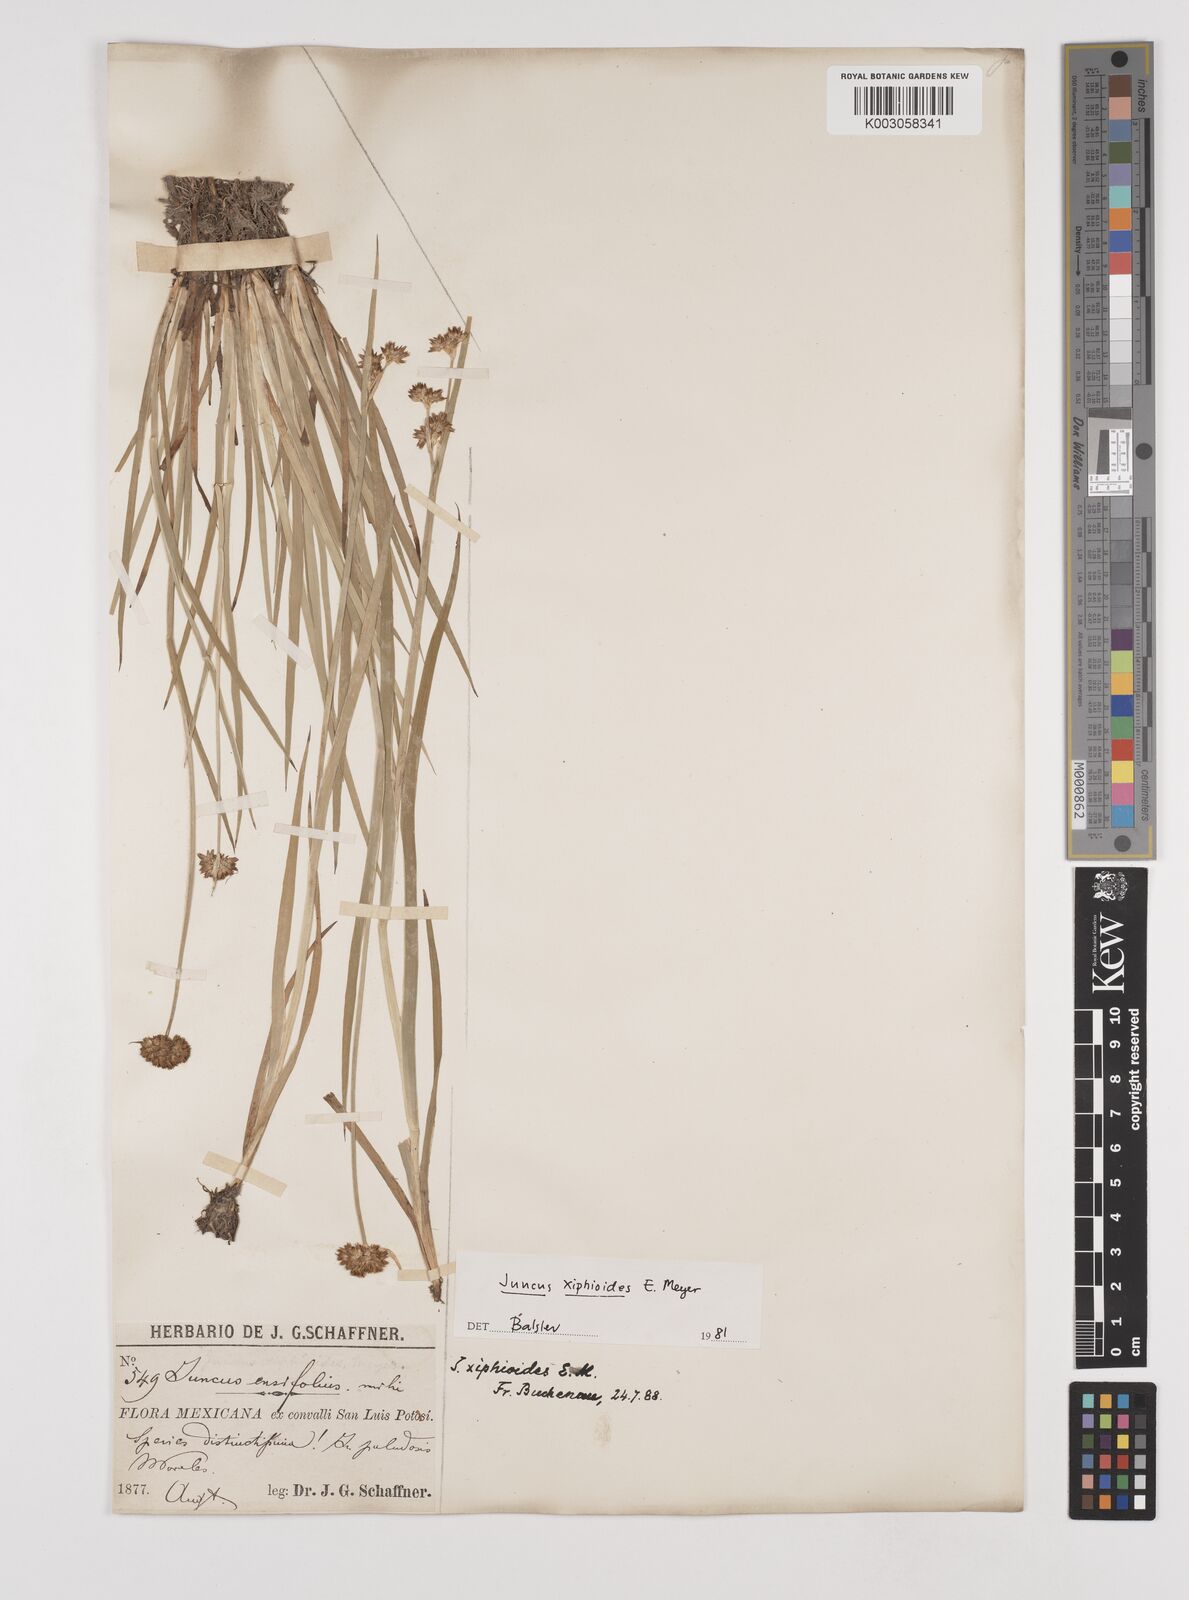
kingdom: Plantae
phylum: Tracheophyta
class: Liliopsida
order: Poales
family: Juncaceae
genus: Juncus
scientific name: Juncus xiphioides
